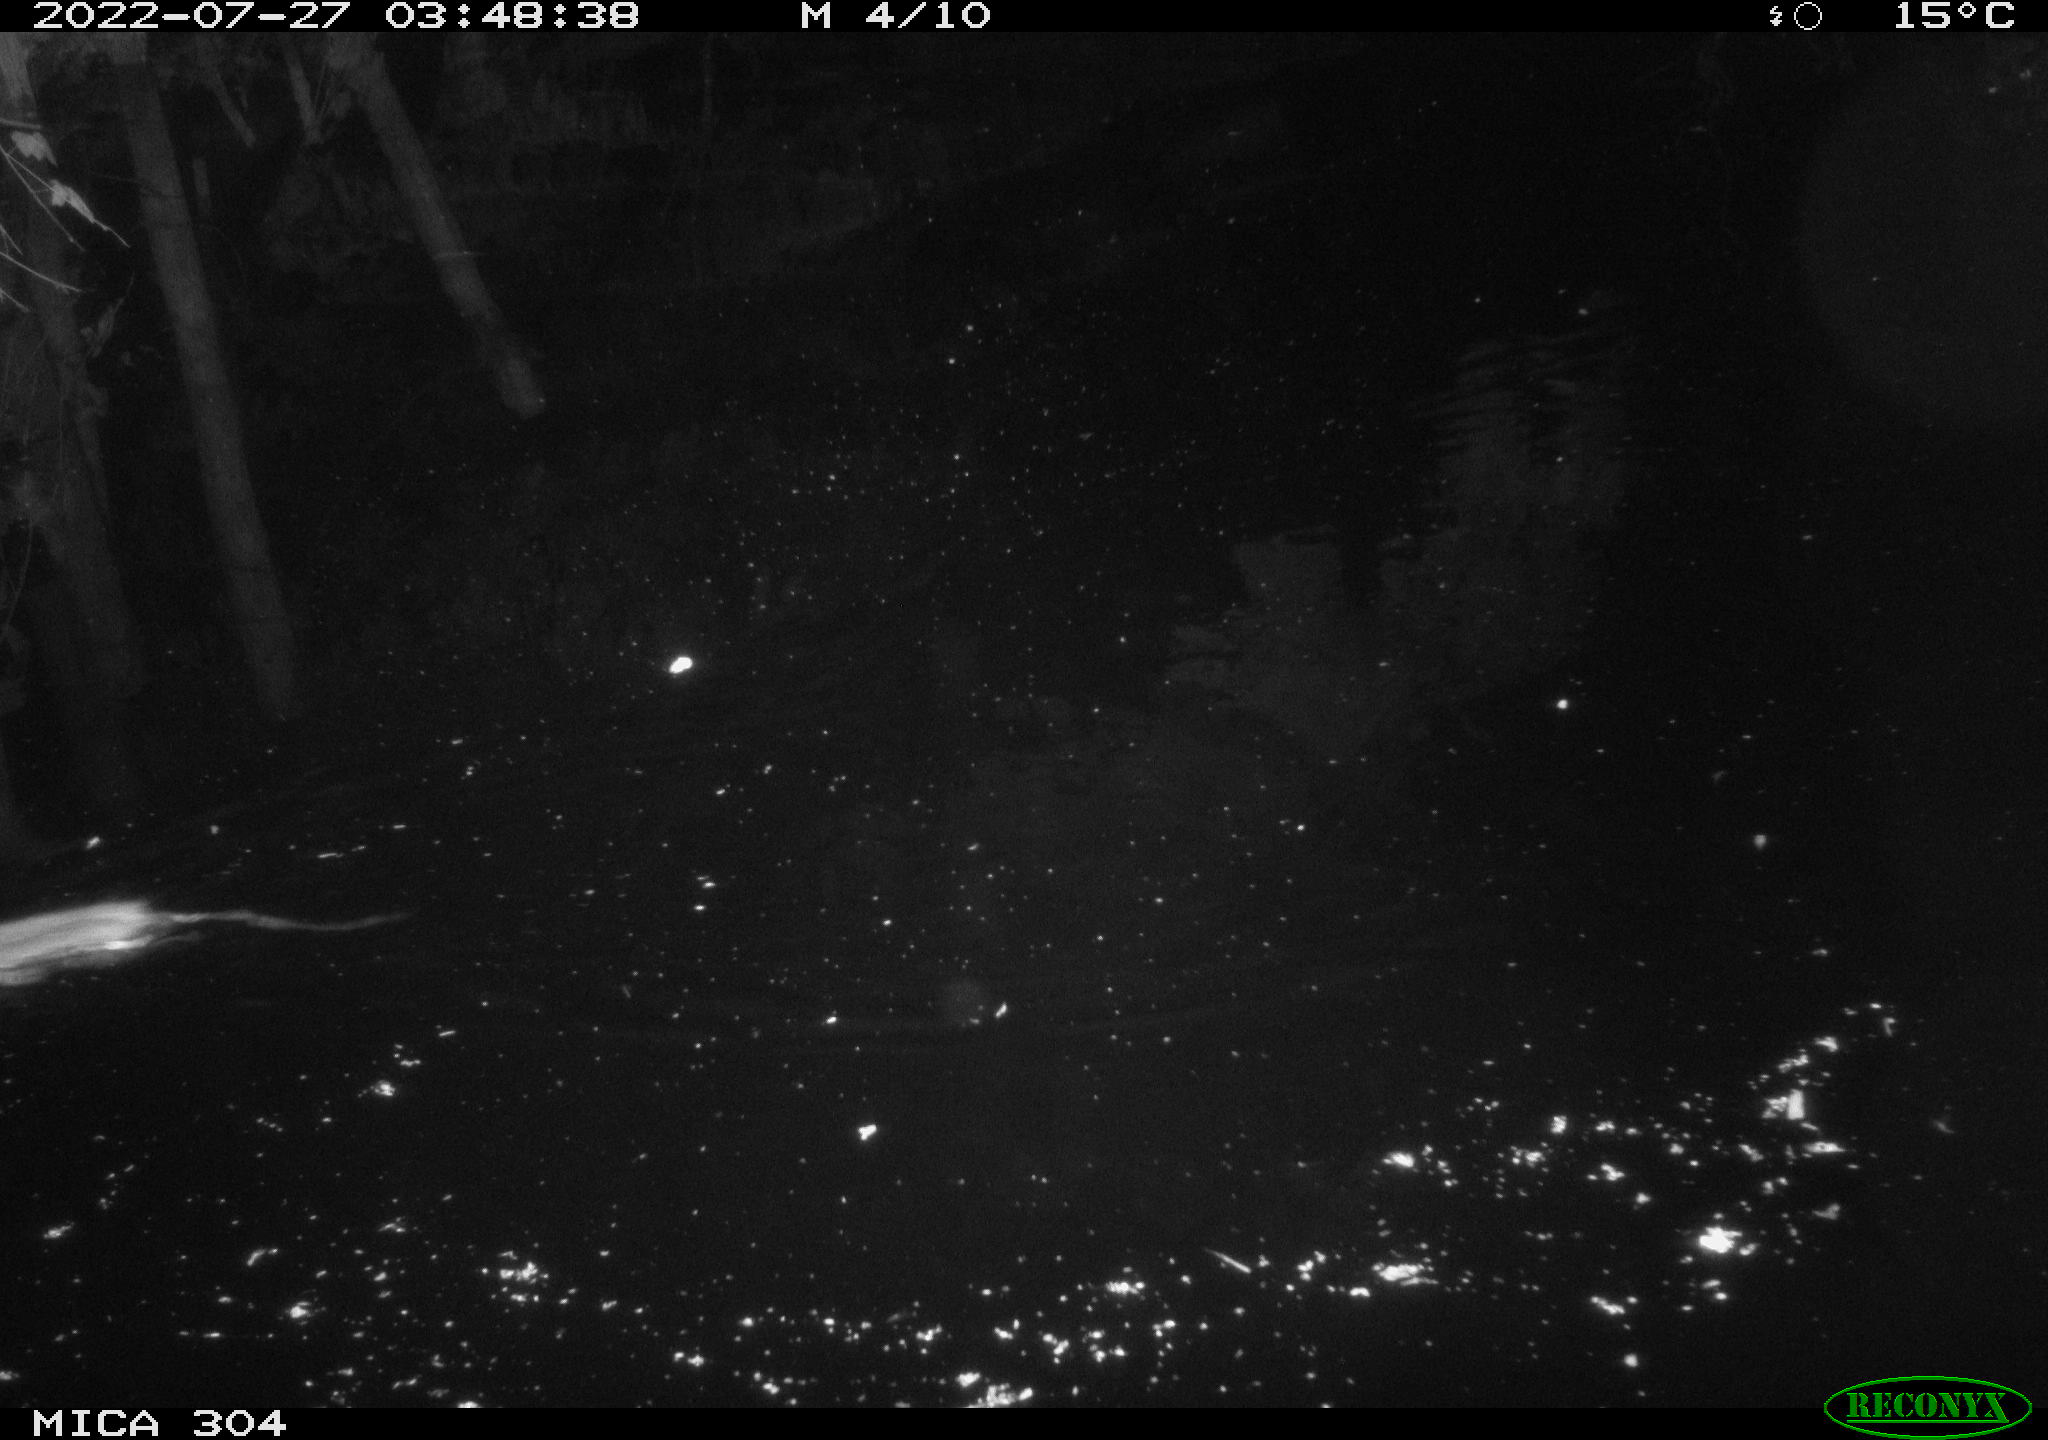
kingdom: Animalia
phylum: Chordata
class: Mammalia
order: Rodentia
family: Muridae
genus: Rattus
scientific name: Rattus norvegicus
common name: Brown rat
